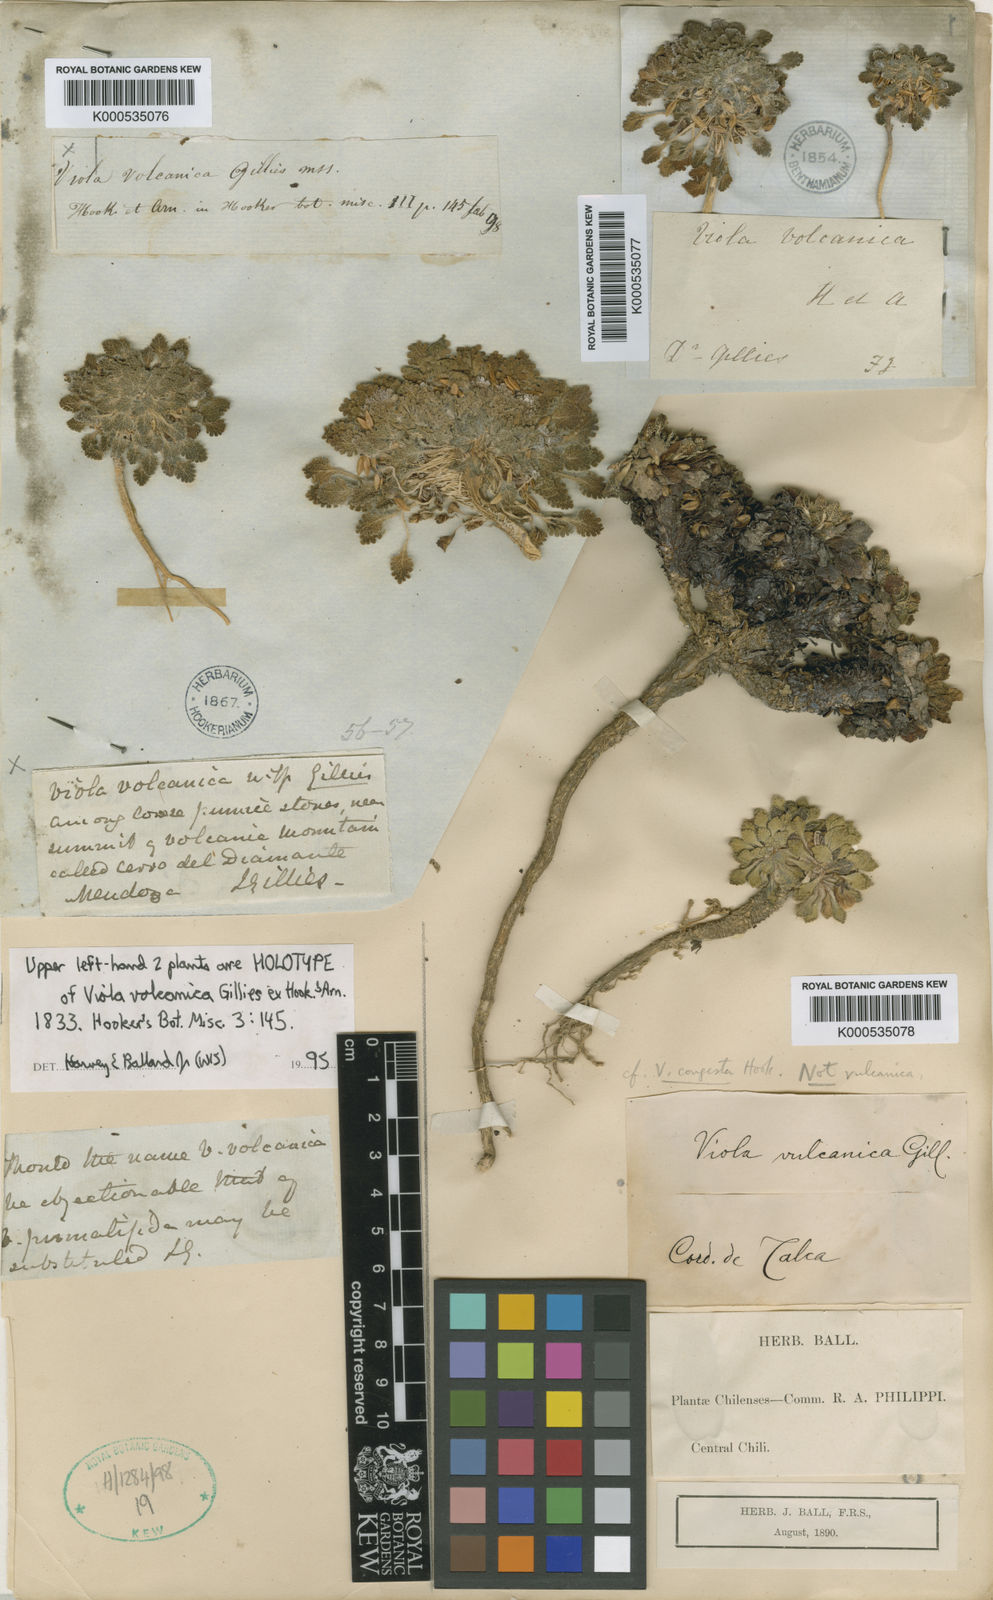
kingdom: Plantae
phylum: Tracheophyta
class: Magnoliopsida
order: Malpighiales
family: Violaceae
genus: Viola
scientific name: Viola volcanica
